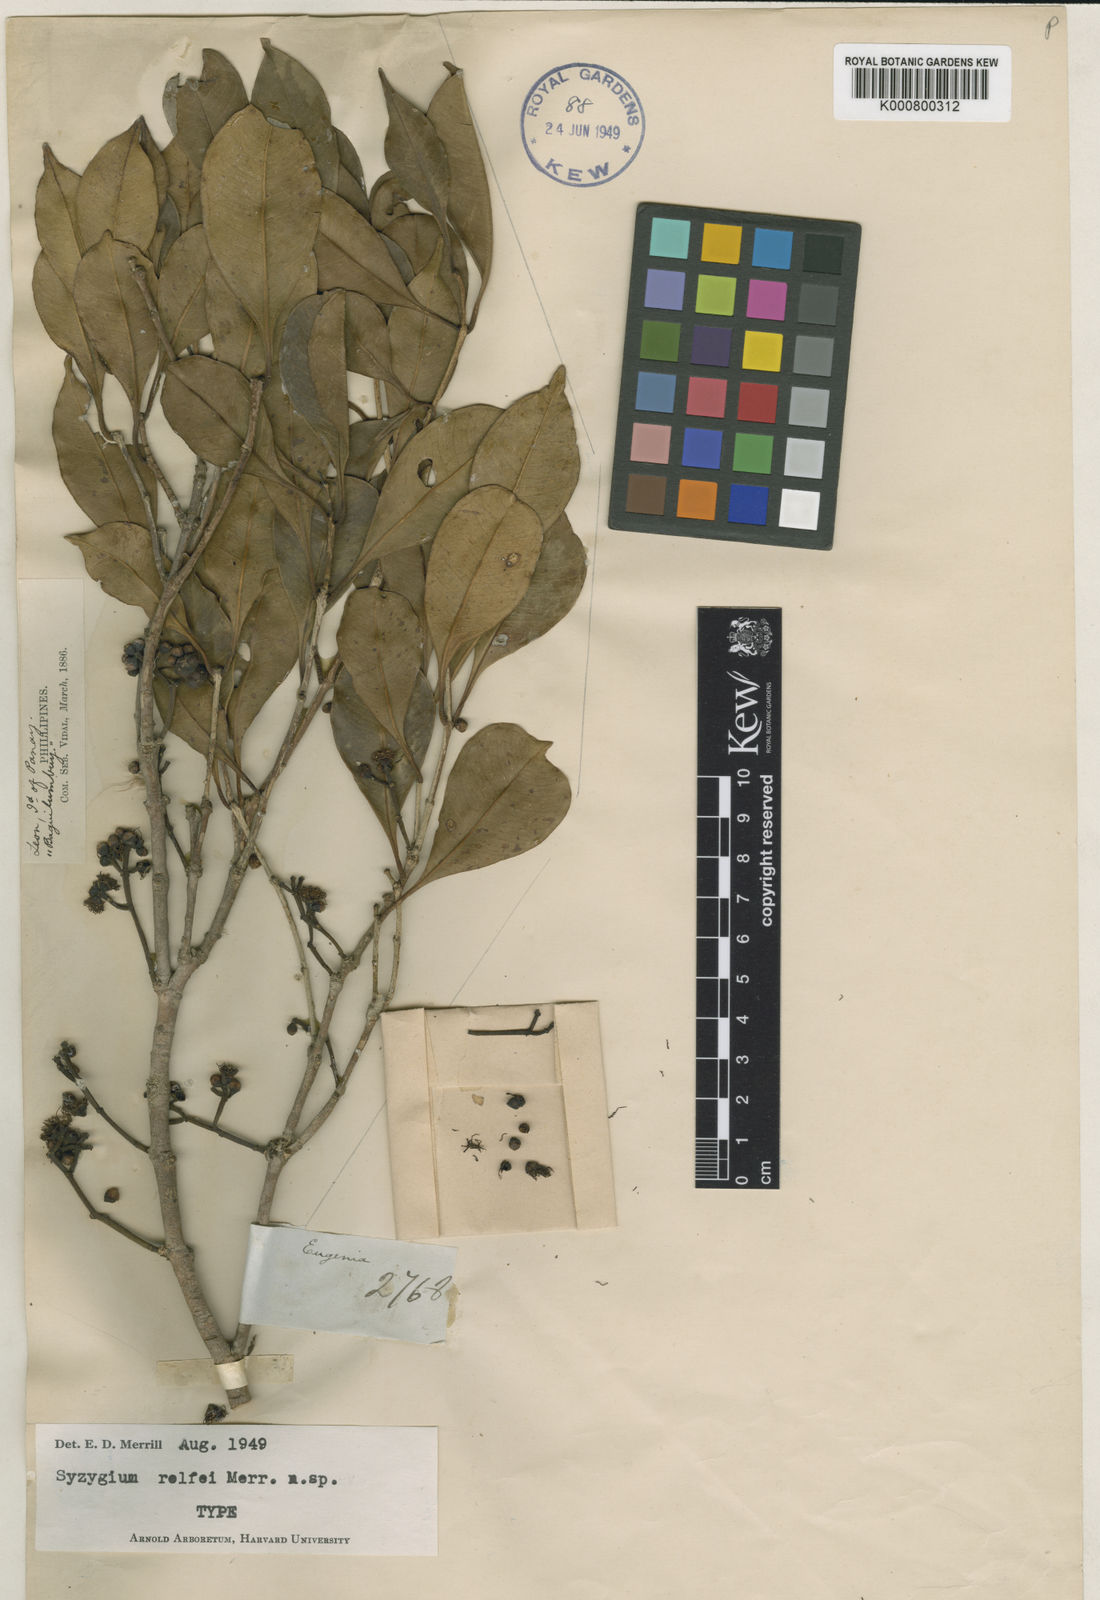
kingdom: Plantae
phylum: Tracheophyta
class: Magnoliopsida
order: Myrtales
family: Myrtaceae
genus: Syzygium
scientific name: Syzygium rolfei
